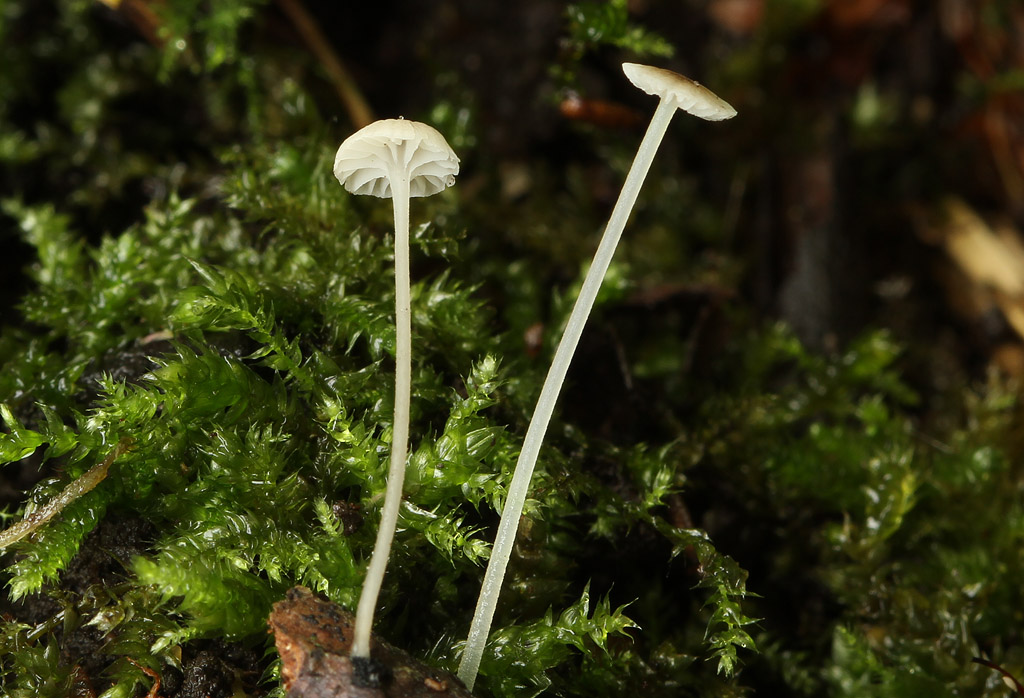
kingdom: Fungi
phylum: Basidiomycota
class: Agaricomycetes
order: Agaricales
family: Porotheleaceae
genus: Phloeomana
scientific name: Phloeomana speirea
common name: kvist-huesvamp
